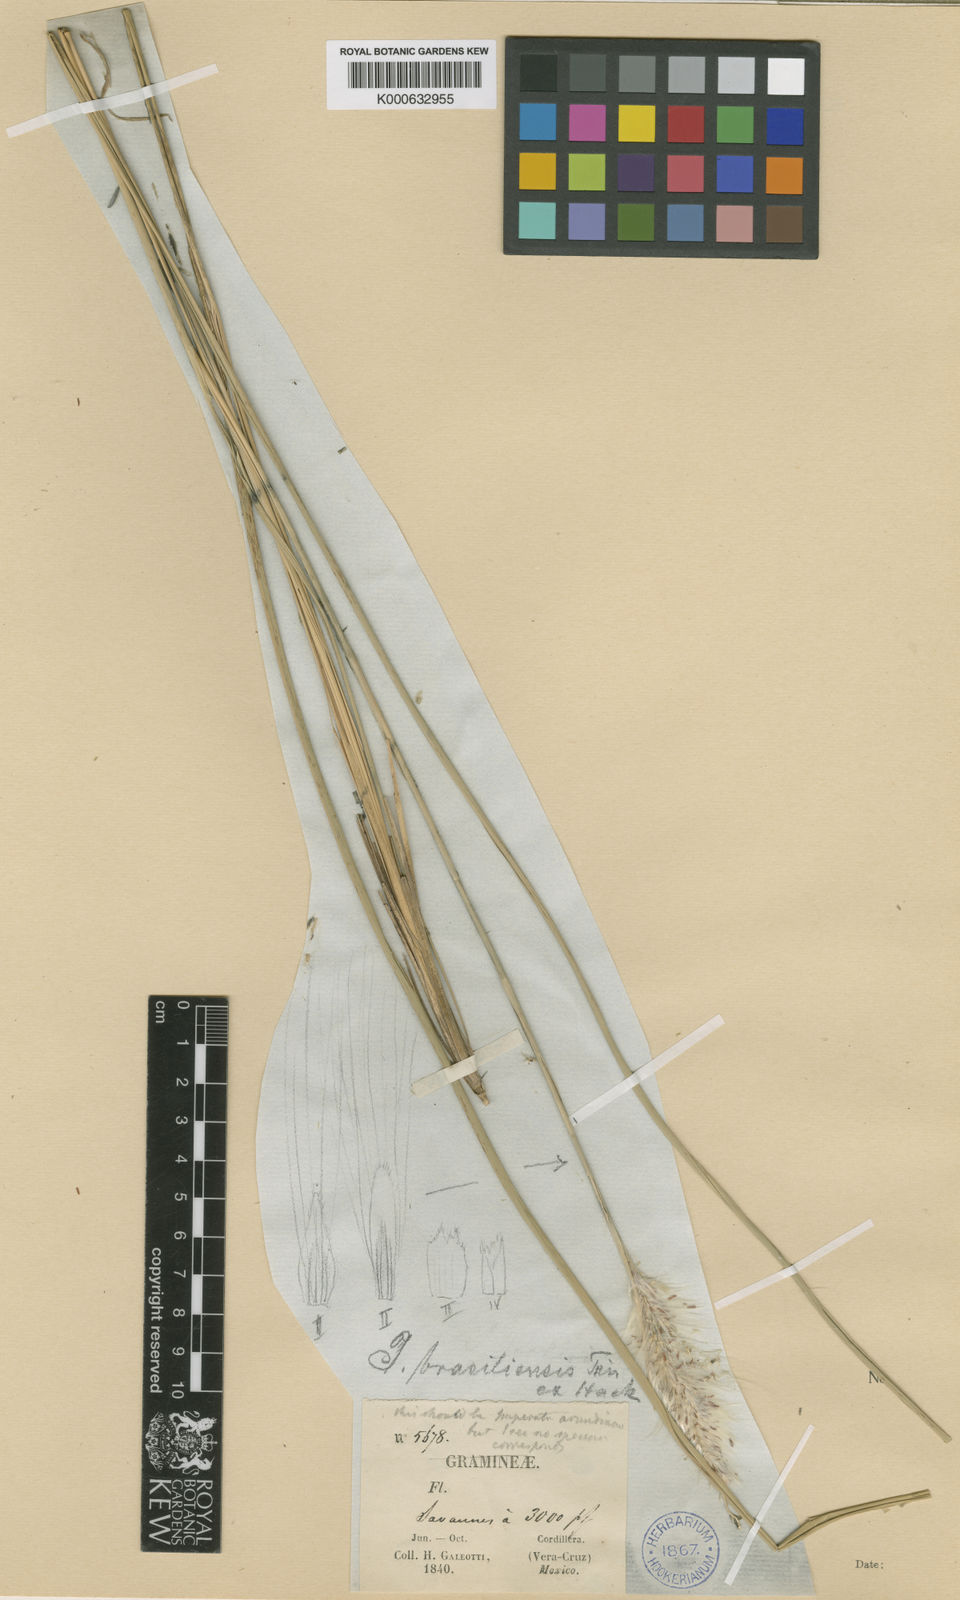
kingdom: Plantae
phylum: Tracheophyta
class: Liliopsida
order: Poales
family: Poaceae
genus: Imperata
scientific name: Imperata brasiliensis
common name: Brazilian satintail
